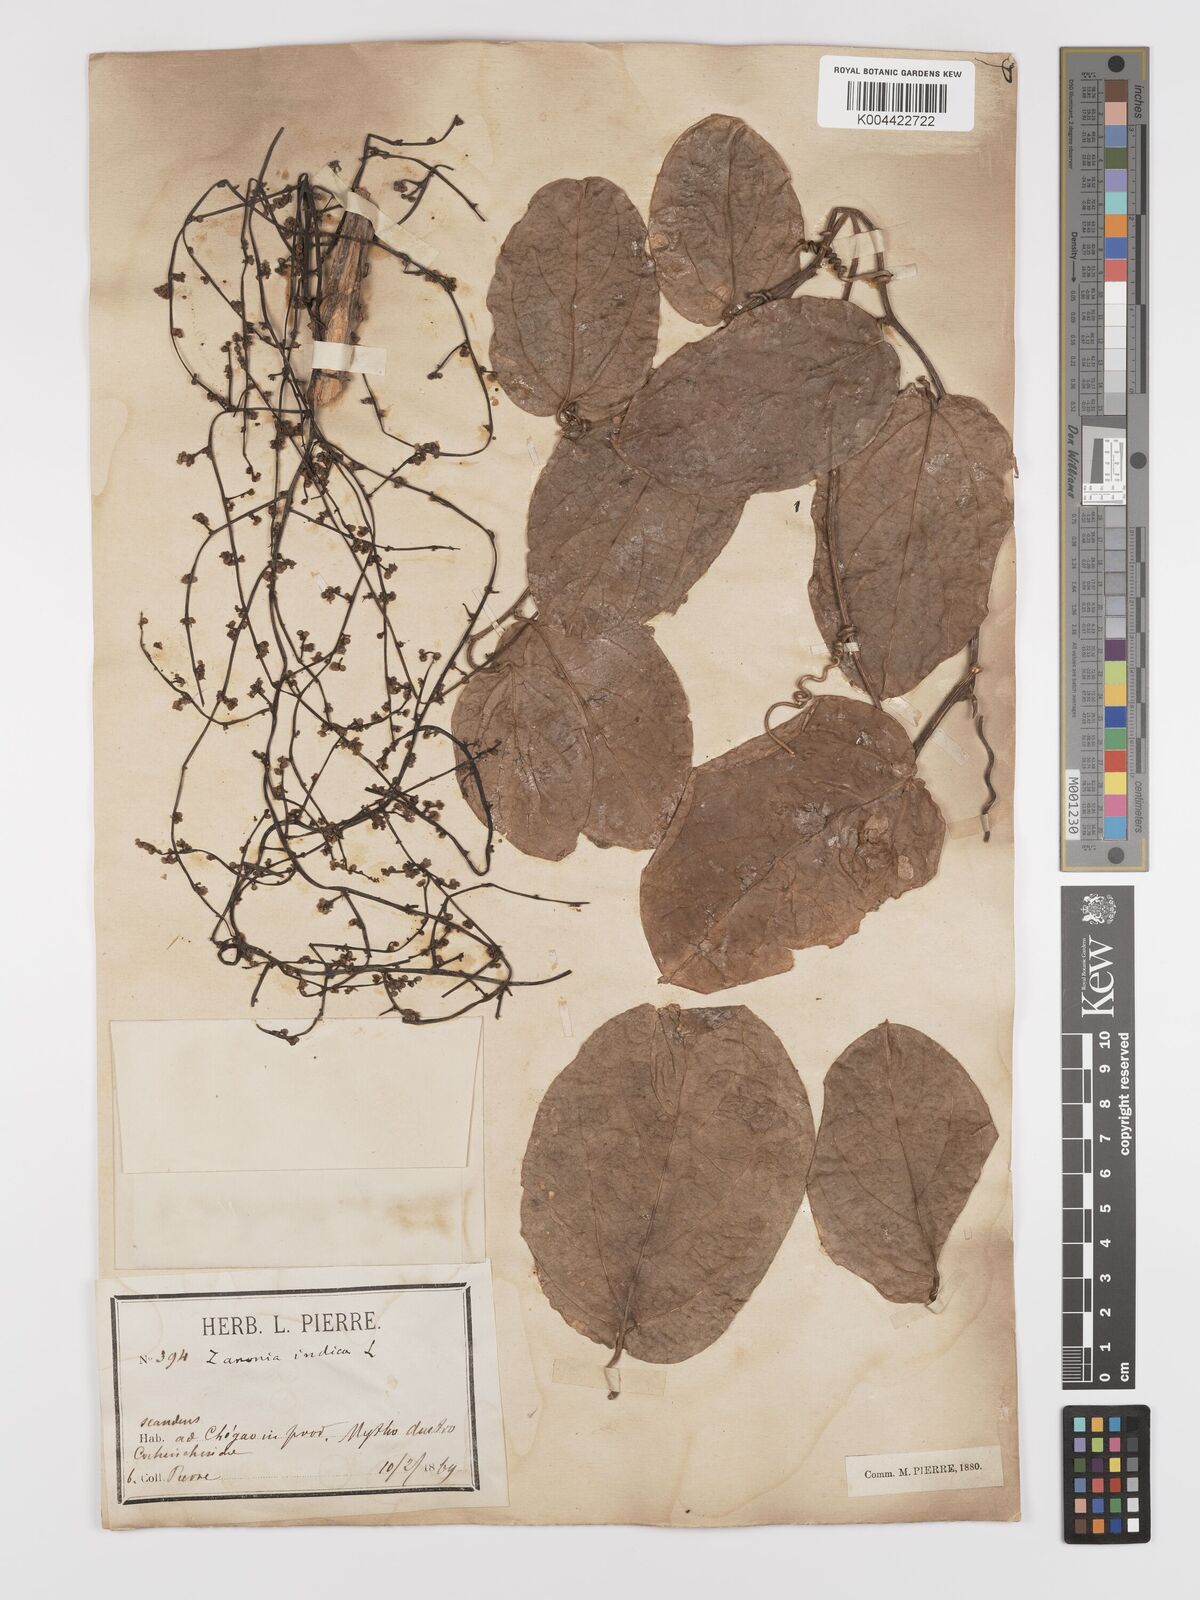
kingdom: Plantae
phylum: Tracheophyta
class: Magnoliopsida
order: Cucurbitales
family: Cucurbitaceae
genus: Zanonia
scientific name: Zanonia indica
